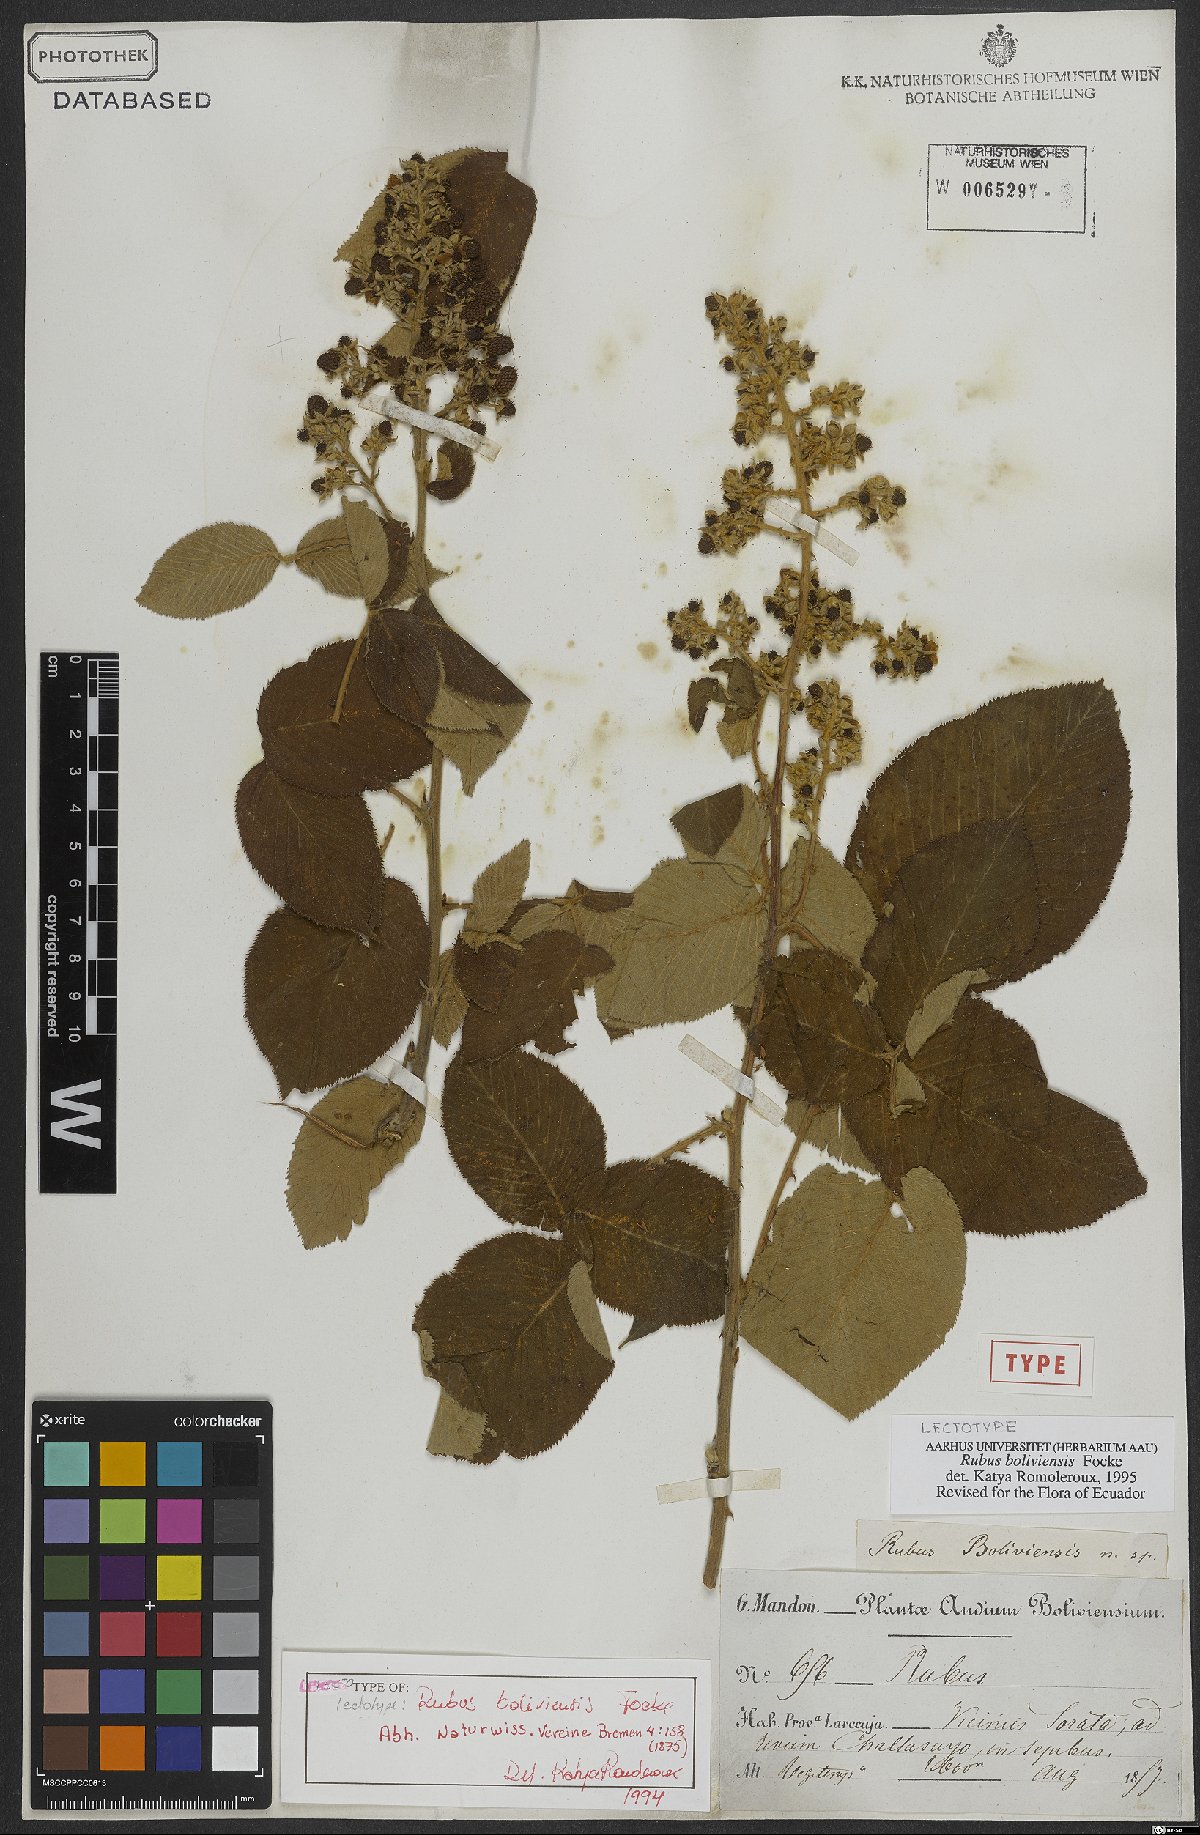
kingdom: Plantae
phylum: Tracheophyta
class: Magnoliopsida
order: Rosales
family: Rosaceae
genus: Rubus
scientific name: Rubus boliviensis
